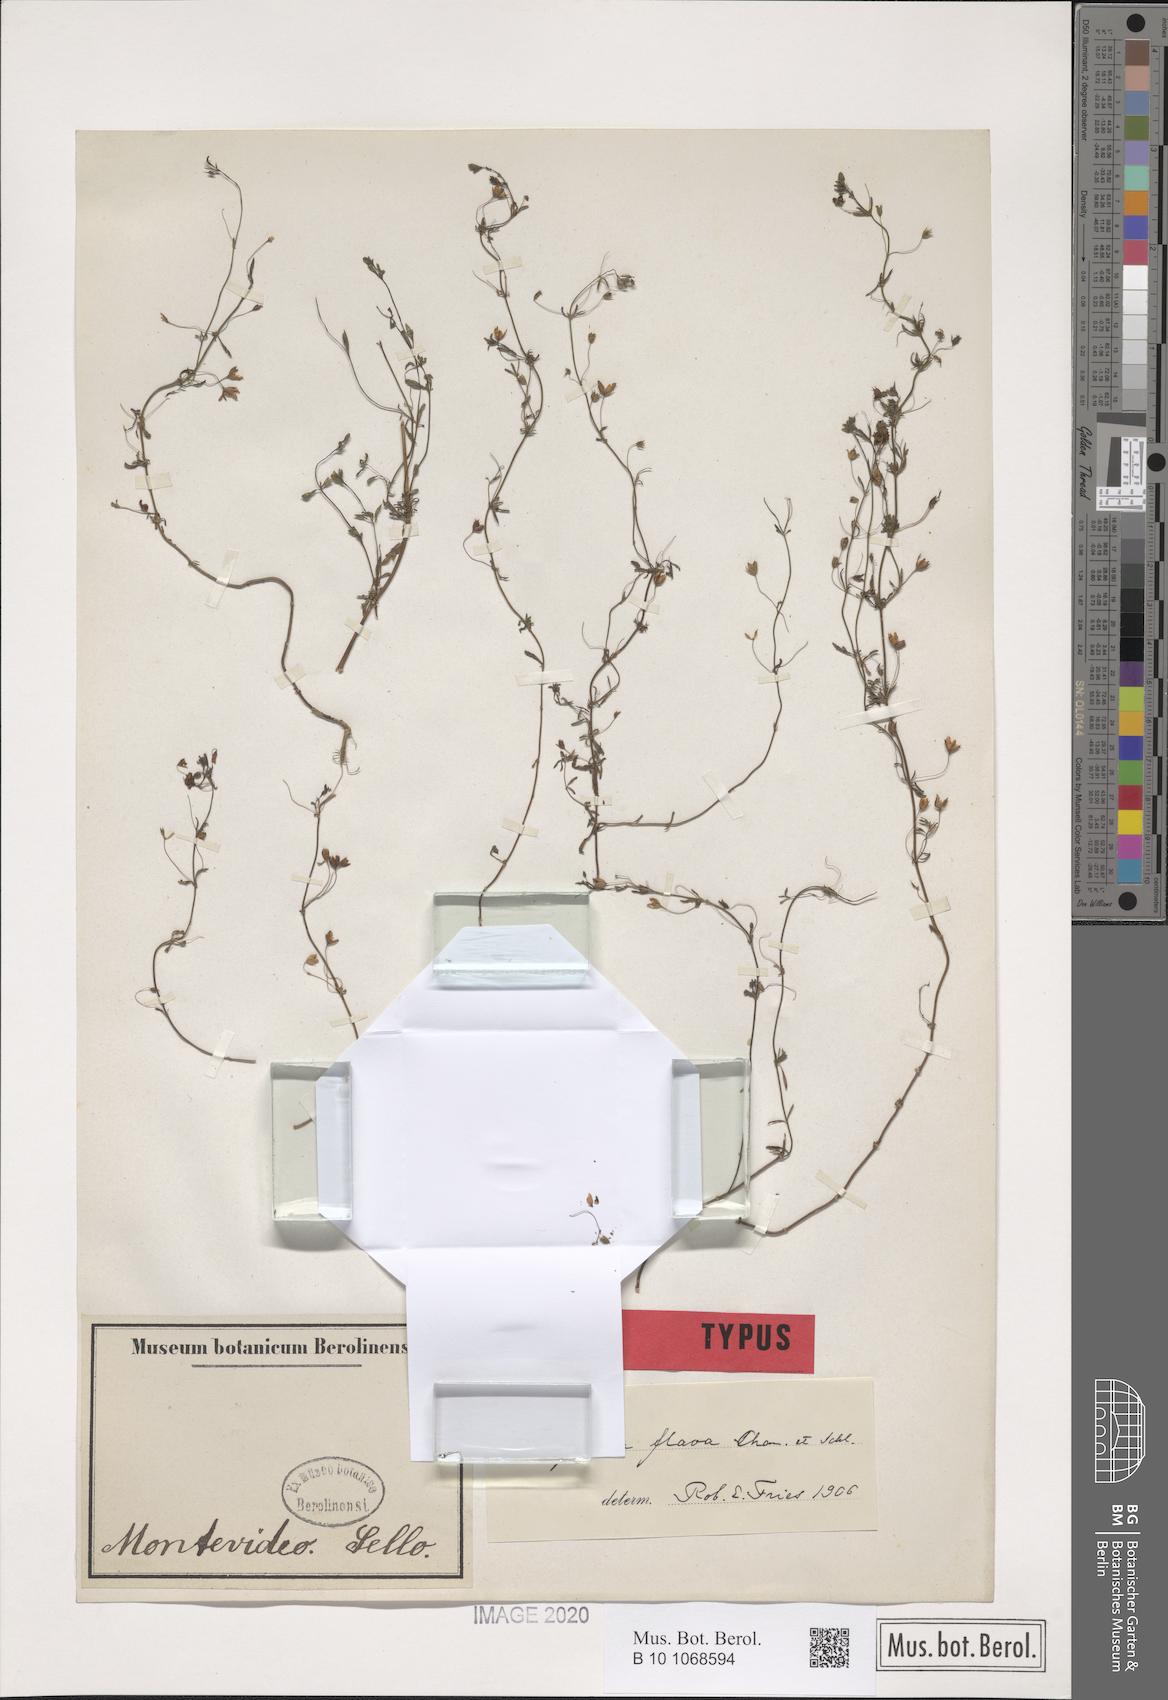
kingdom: Plantae
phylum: Tracheophyta
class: Magnoliopsida
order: Lamiales
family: Plantaginaceae
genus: Scoparia
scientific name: Scoparia montevidensis
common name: Broomwort
